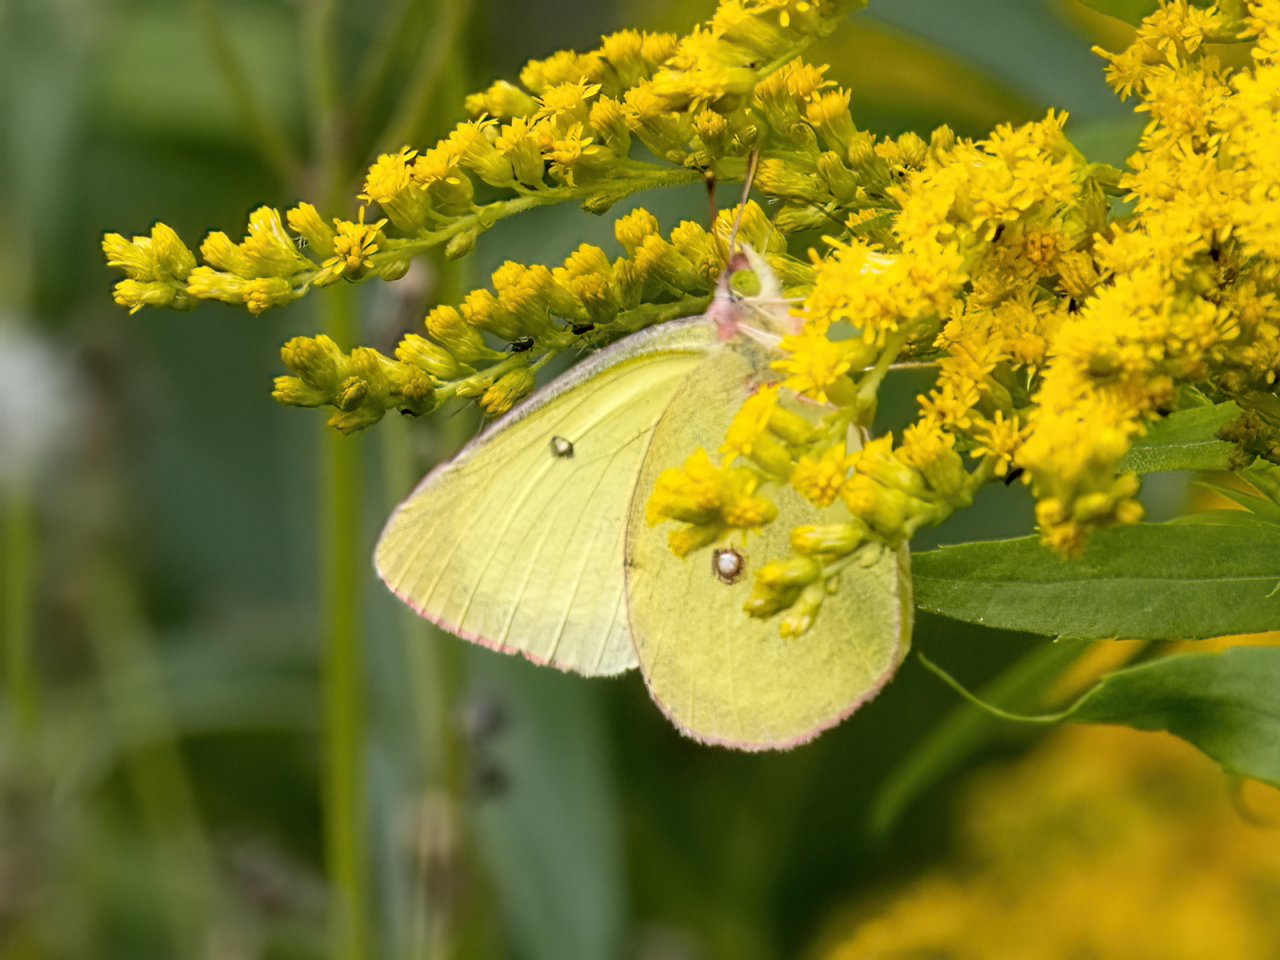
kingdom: Animalia
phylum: Arthropoda
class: Insecta
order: Lepidoptera
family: Pieridae
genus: Colias
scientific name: Colias interior
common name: Pink-edged Sulphur
